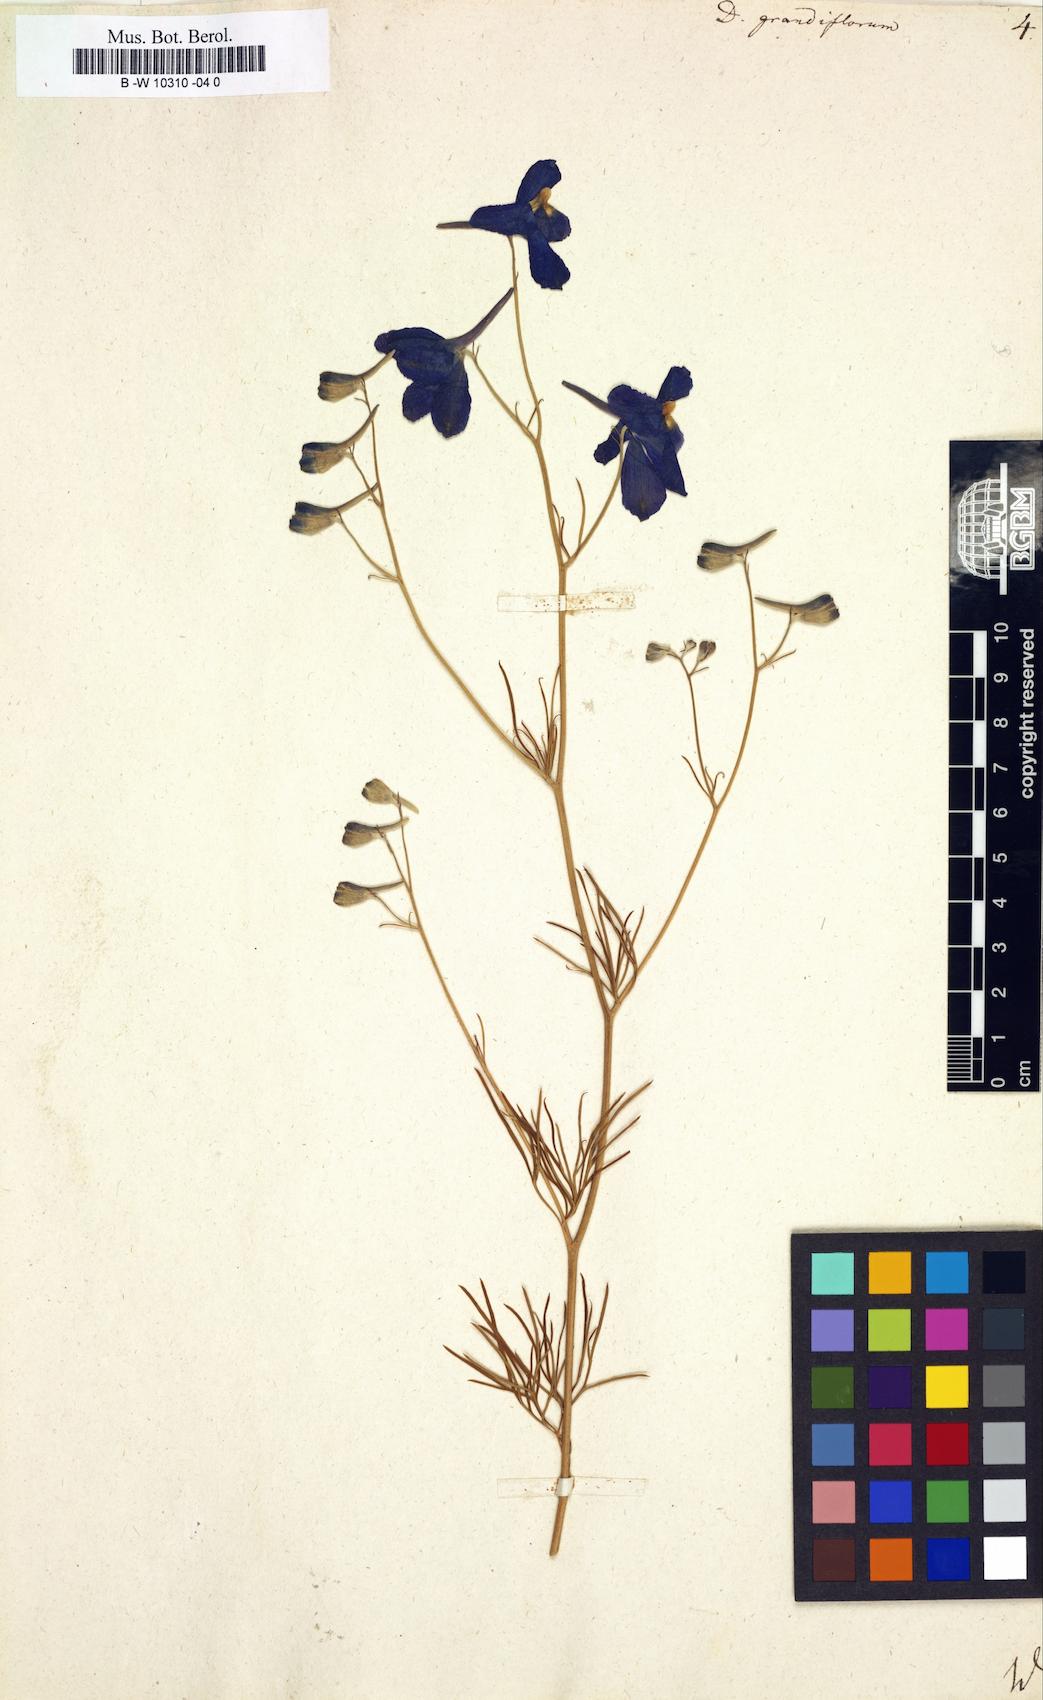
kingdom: Plantae
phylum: Tracheophyta
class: Magnoliopsida
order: Ranunculales
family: Ranunculaceae
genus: Delphinium
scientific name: Delphinium grandiflorum
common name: Siberian larkspur
